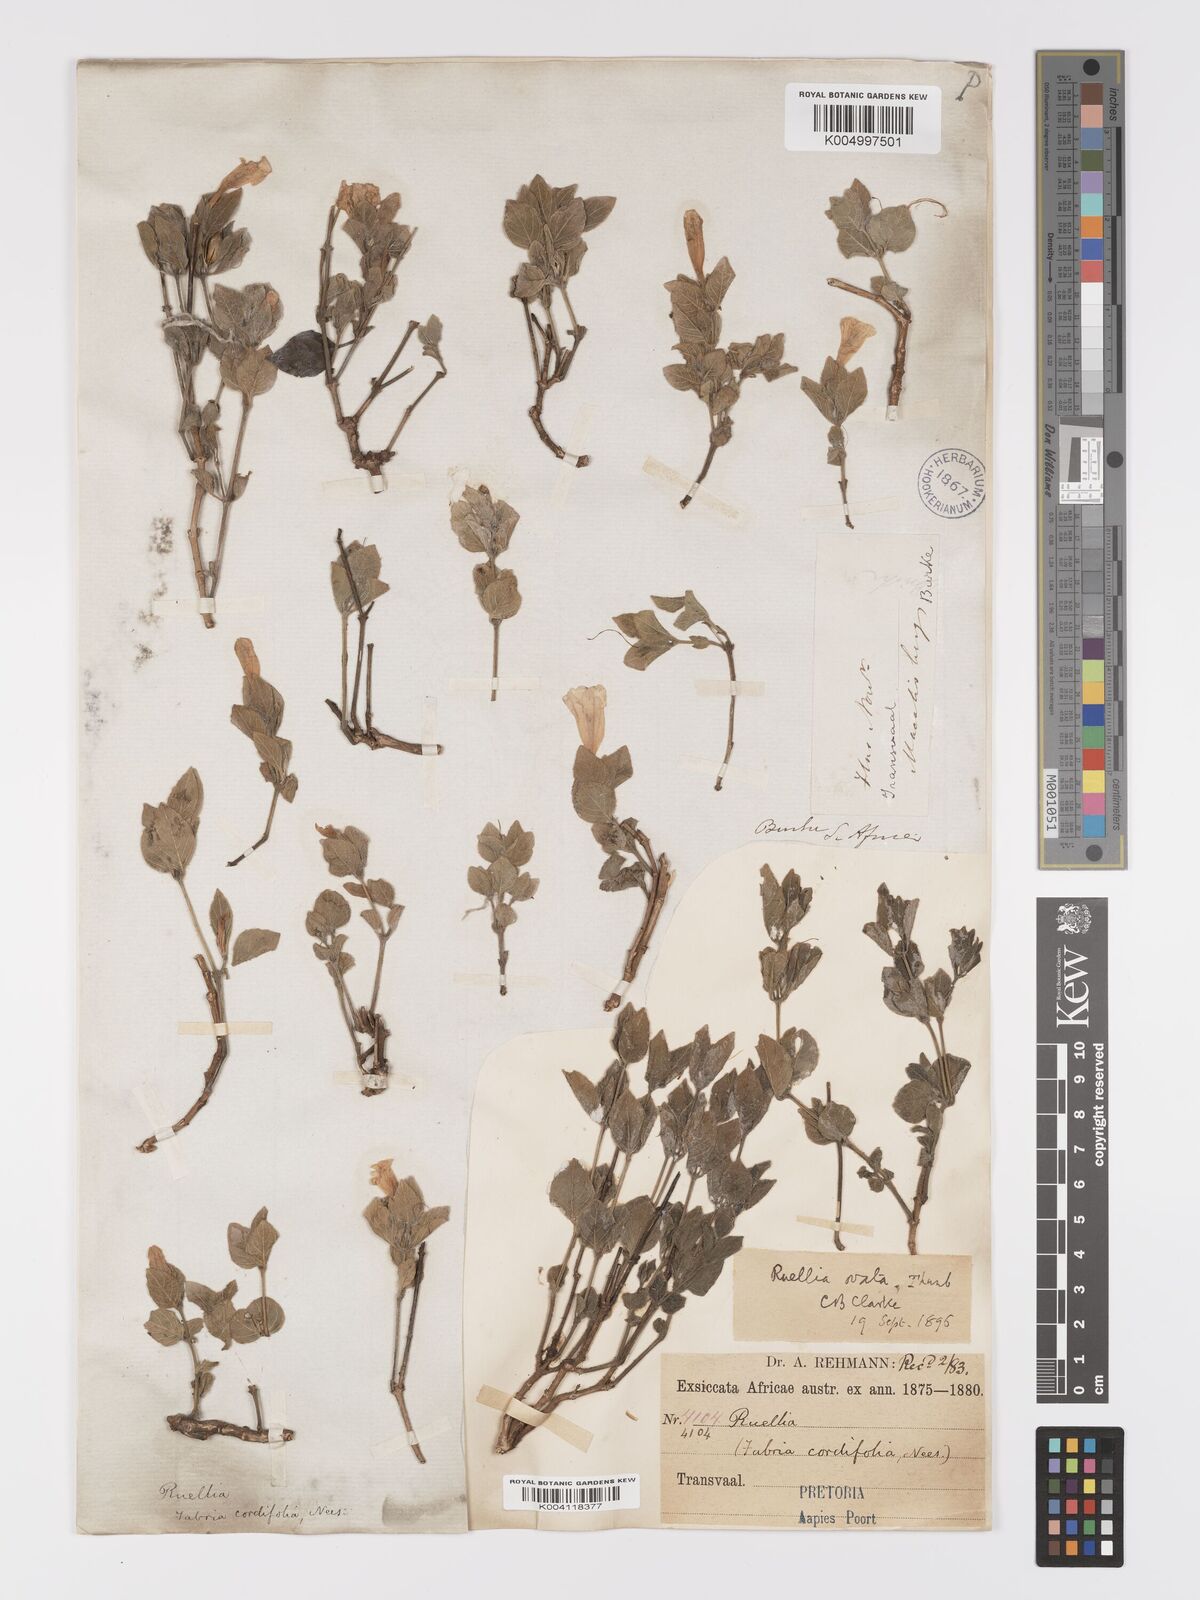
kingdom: Plantae
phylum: Tracheophyta
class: Magnoliopsida
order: Lamiales
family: Acanthaceae
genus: Ruellia
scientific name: Ruellia cordata
